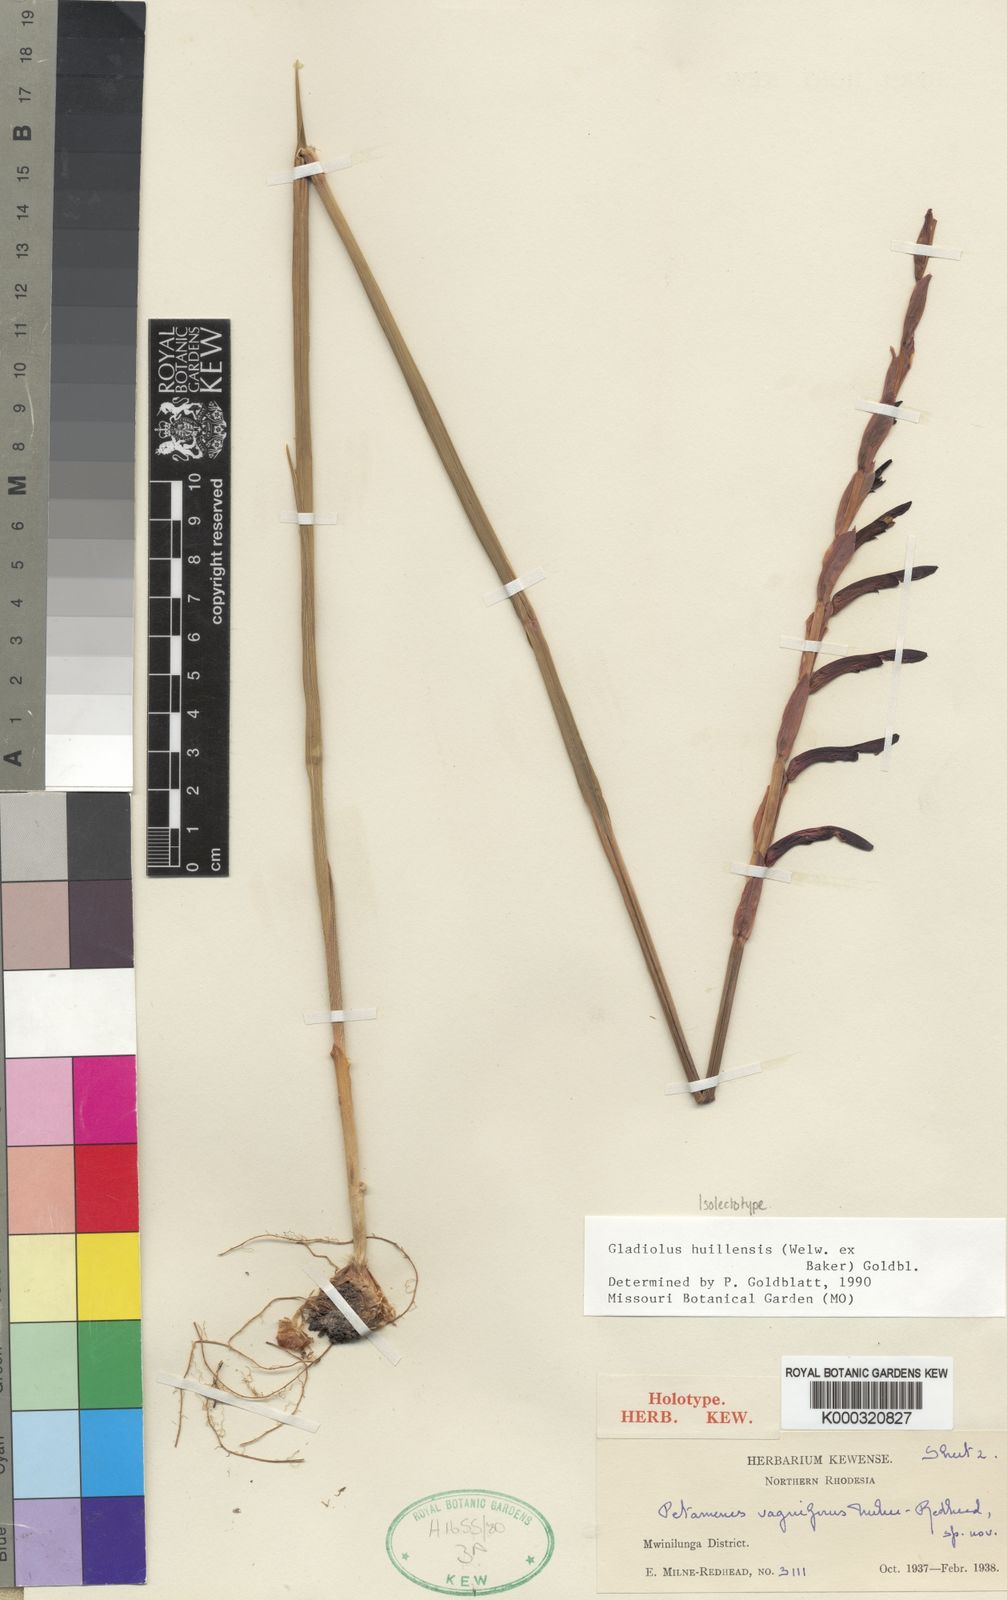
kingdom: Plantae
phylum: Tracheophyta
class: Liliopsida
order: Asparagales
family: Iridaceae
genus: Gladiolus
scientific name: Gladiolus huillensis
